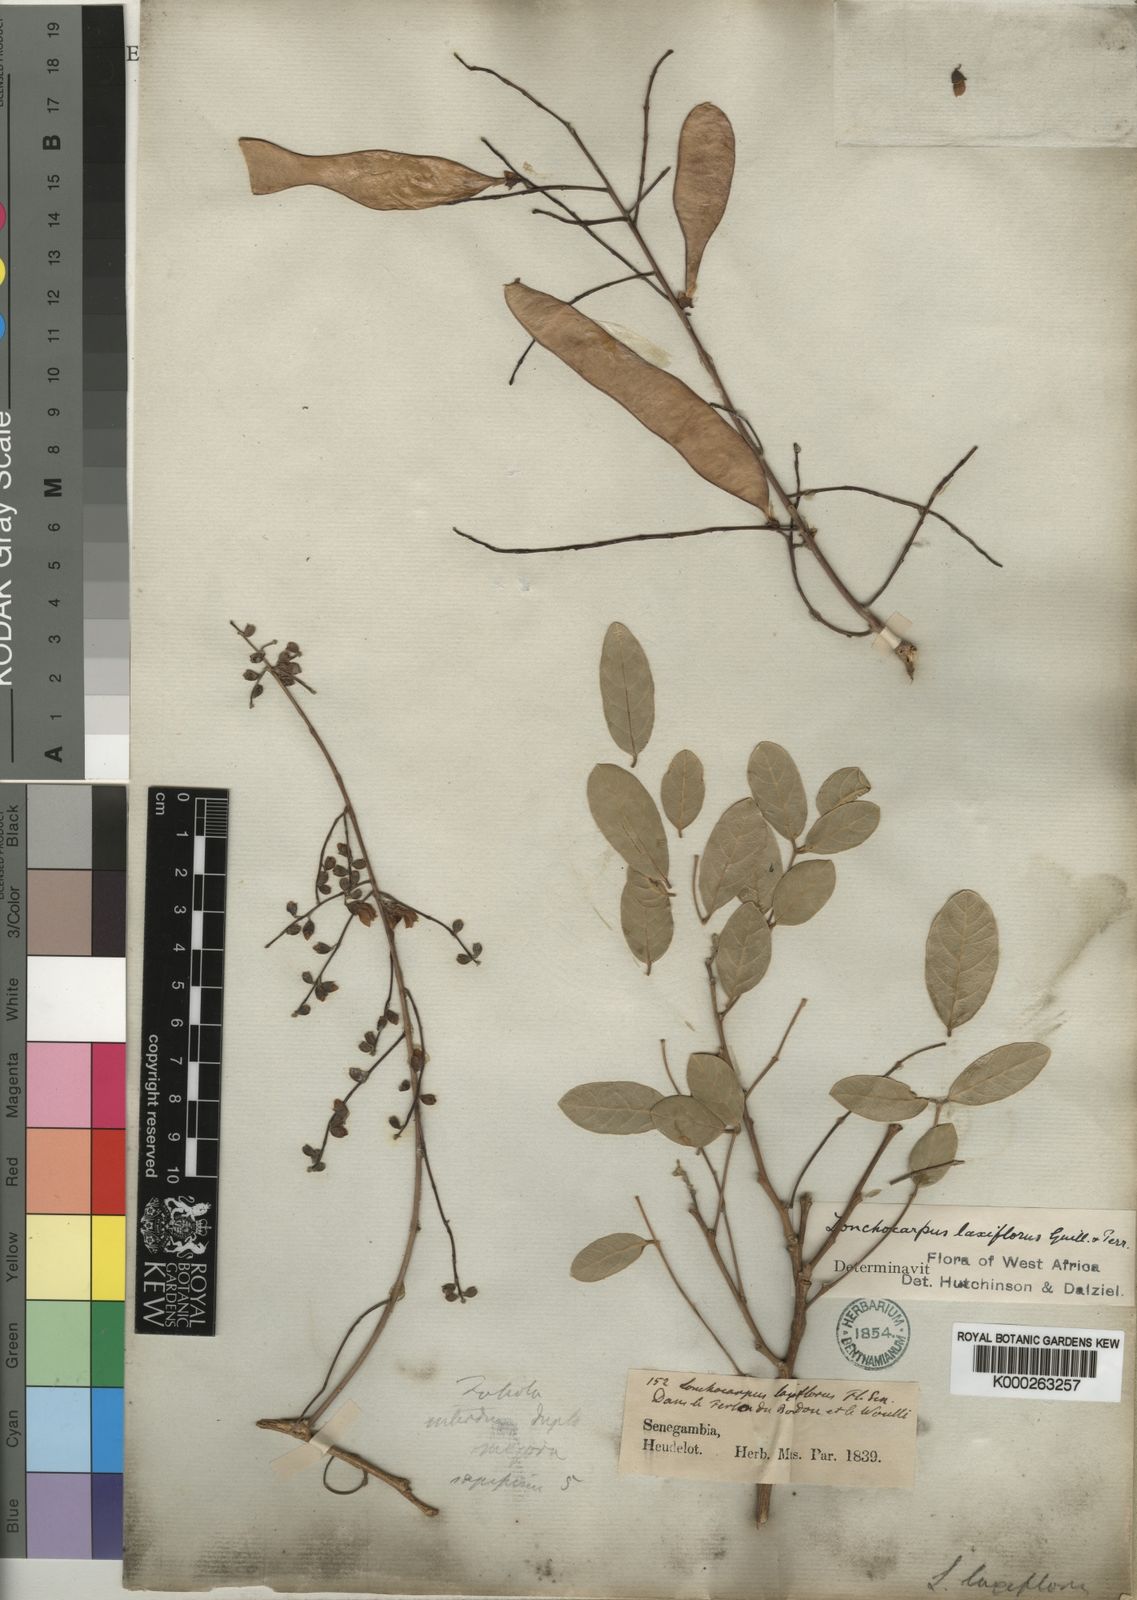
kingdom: Plantae
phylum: Tracheophyta
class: Magnoliopsida
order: Fabales
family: Fabaceae
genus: Philenoptera
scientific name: Philenoptera laxiflora
